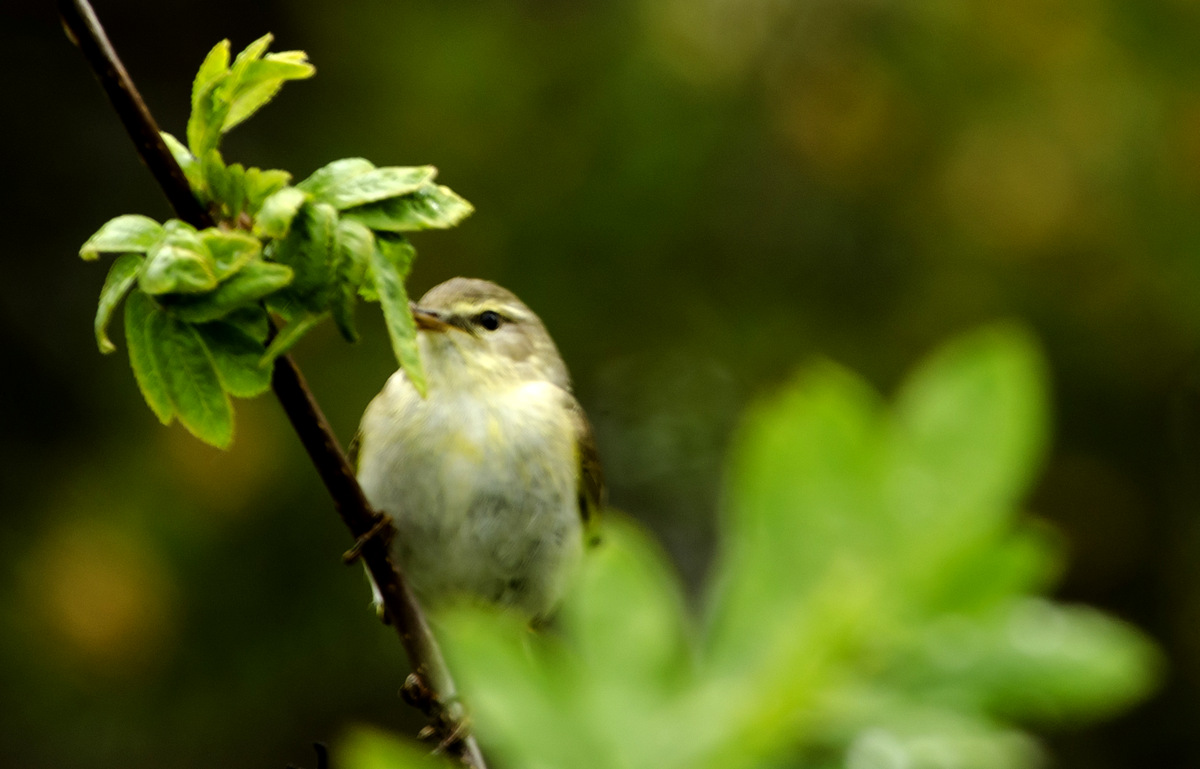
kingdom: Animalia
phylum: Chordata
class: Aves
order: Passeriformes
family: Phylloscopidae
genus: Phylloscopus
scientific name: Phylloscopus trochilus
